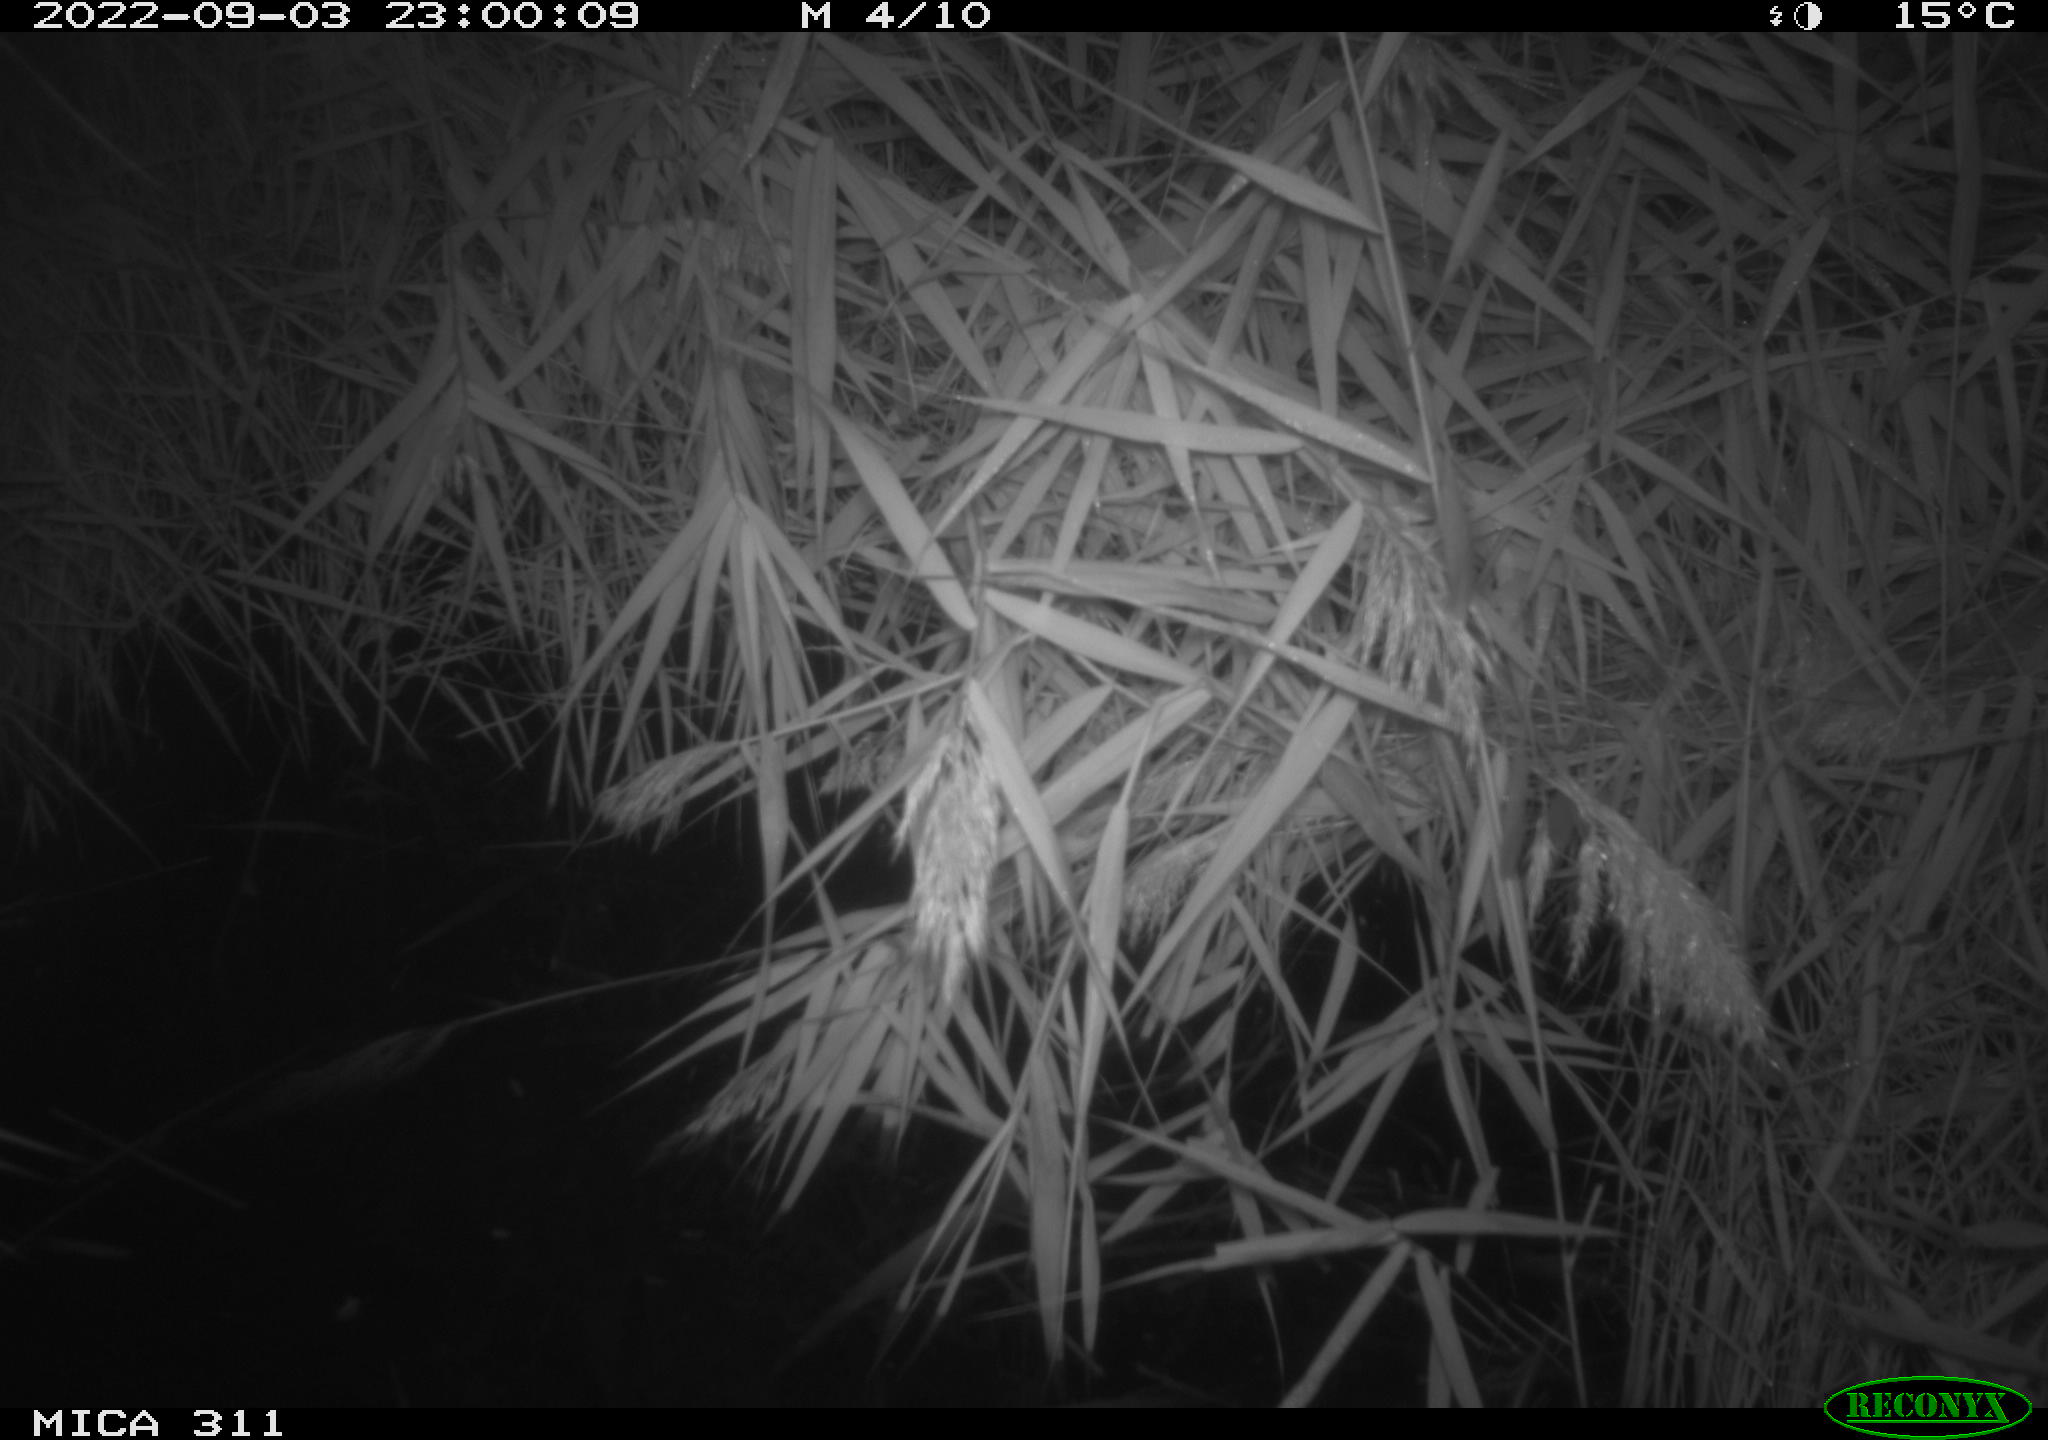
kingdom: Animalia
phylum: Chordata
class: Mammalia
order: Rodentia
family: Muridae
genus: Rattus
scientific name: Rattus norvegicus
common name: Brown rat
